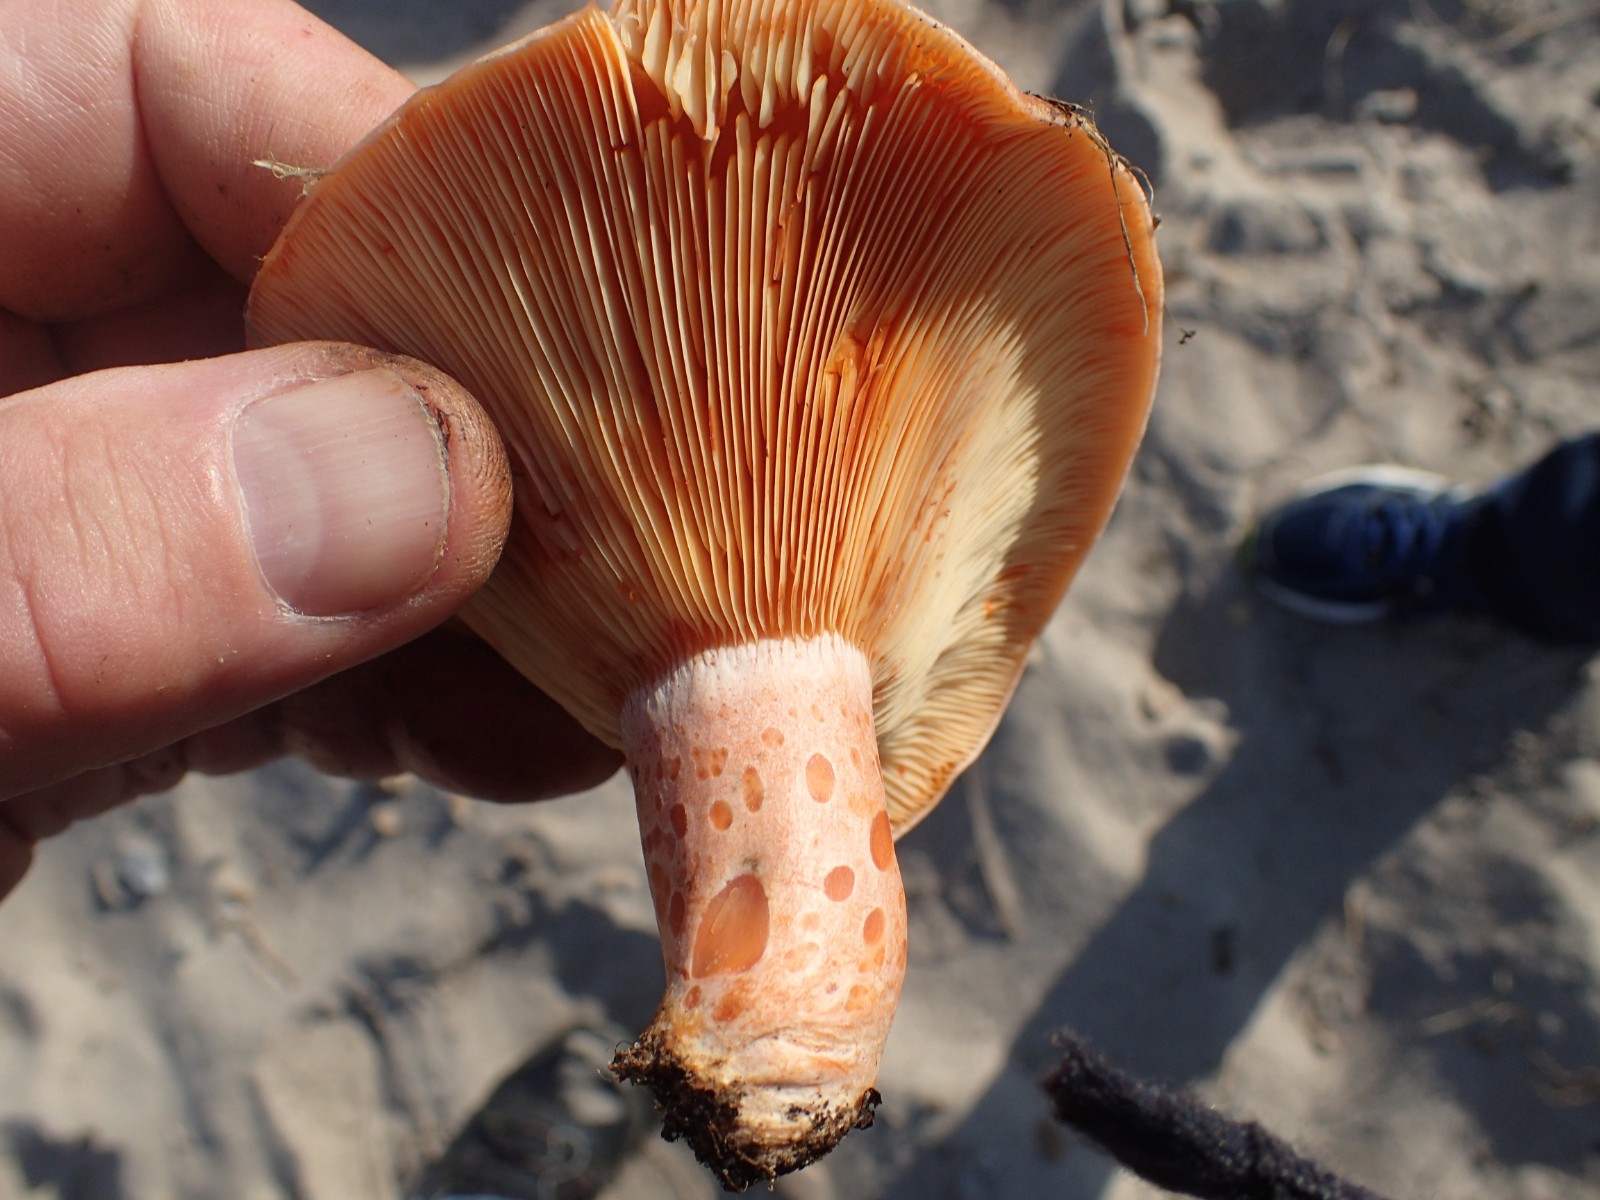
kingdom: Fungi
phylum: Basidiomycota
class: Agaricomycetes
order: Russulales
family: Russulaceae
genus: Lactarius
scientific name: Lactarius deliciosus
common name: velsmagende mælkehat
